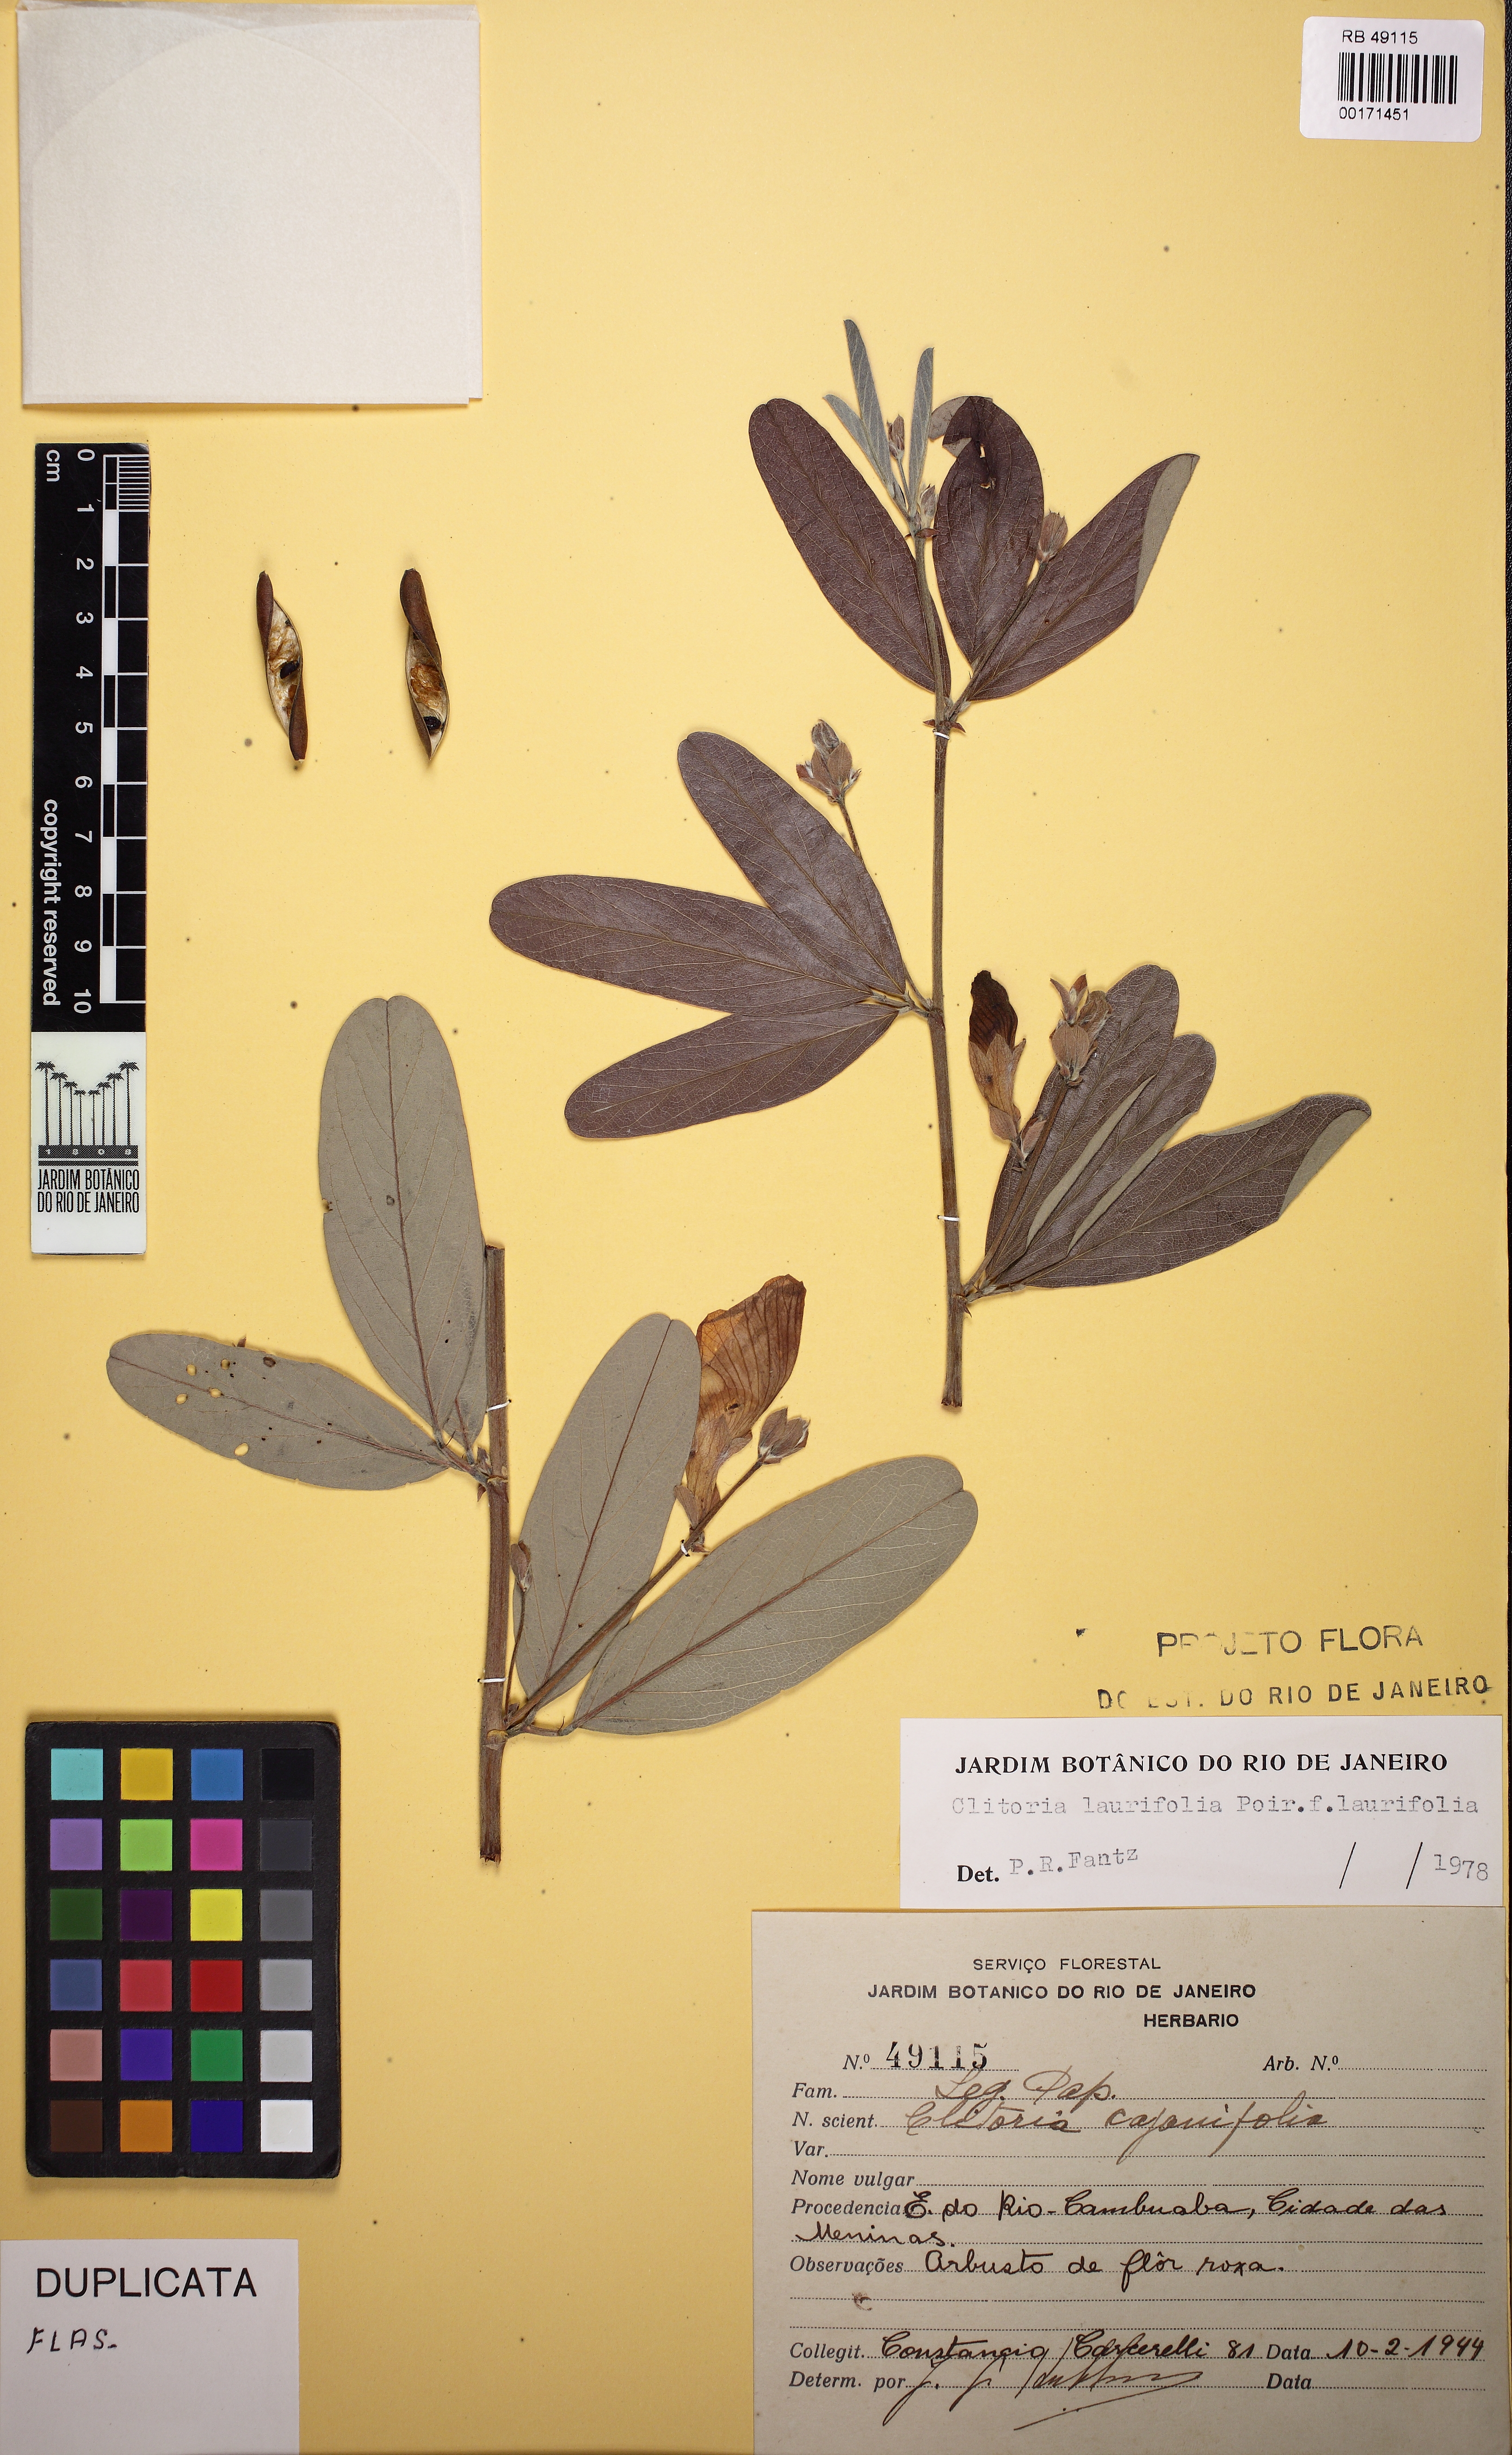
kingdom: Plantae
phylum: Tracheophyta
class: Magnoliopsida
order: Fabales
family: Fabaceae
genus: Clitoria
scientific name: Clitoria laurifolia
